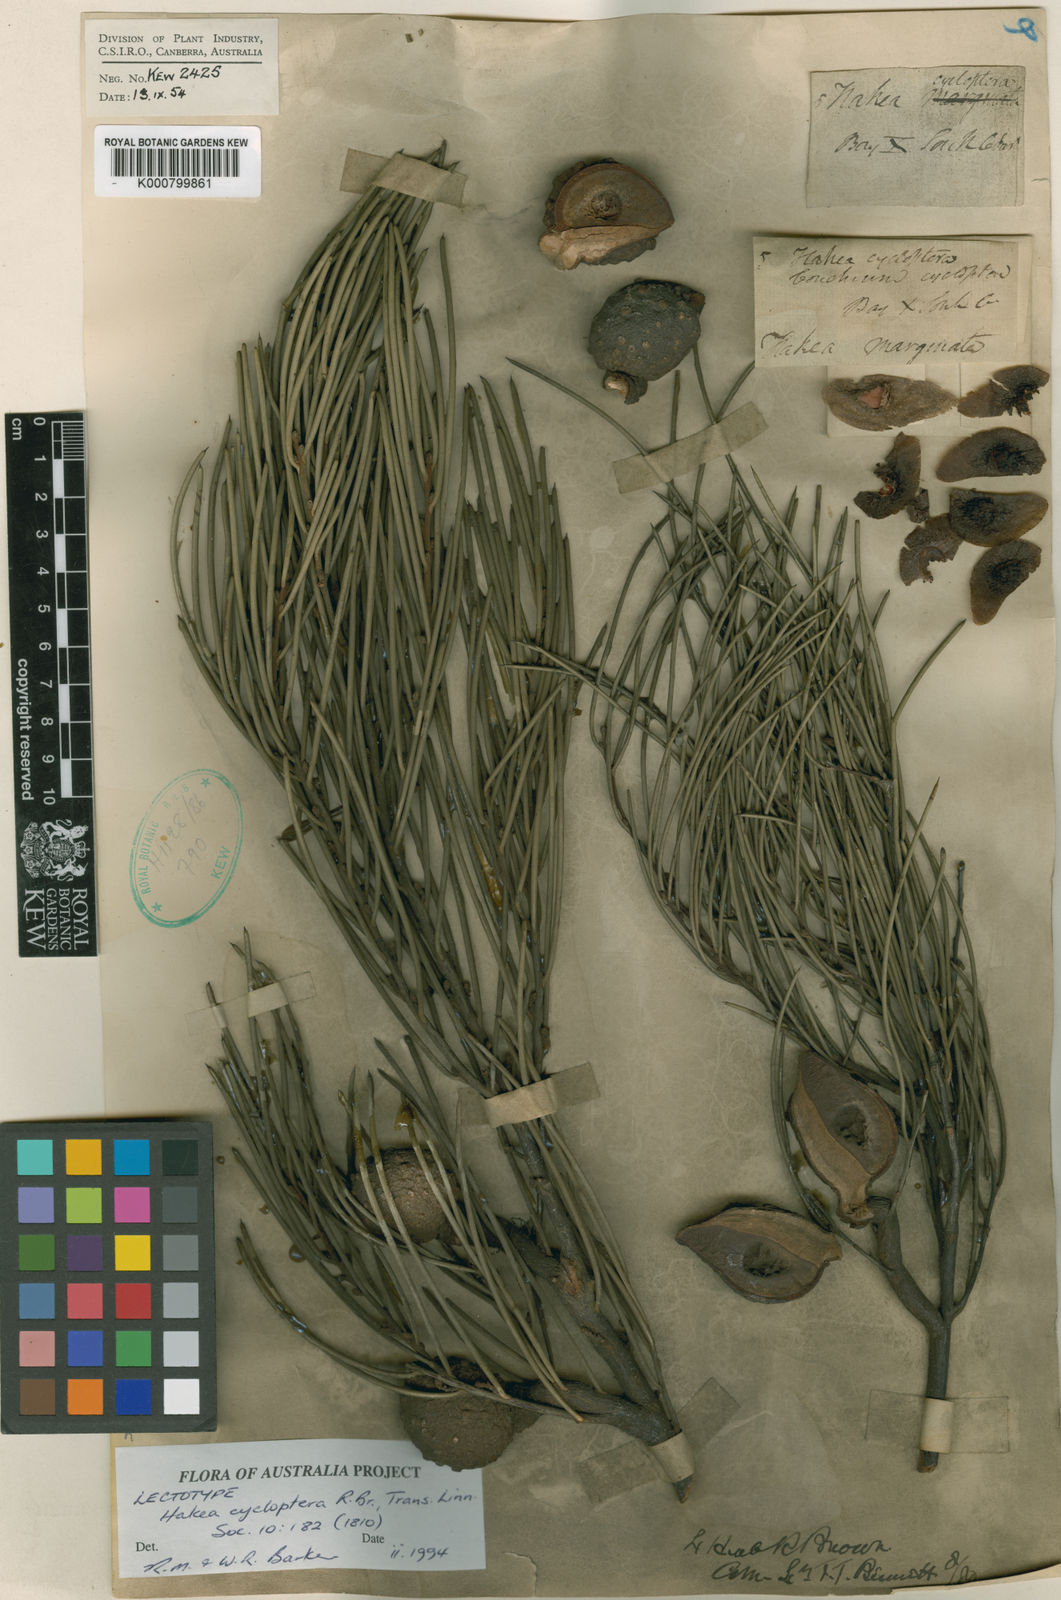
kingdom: Plantae
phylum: Tracheophyta
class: Magnoliopsida
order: Proteales
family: Proteaceae
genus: Hakea
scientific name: Hakea cycloptera
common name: Elm-seed hakea
